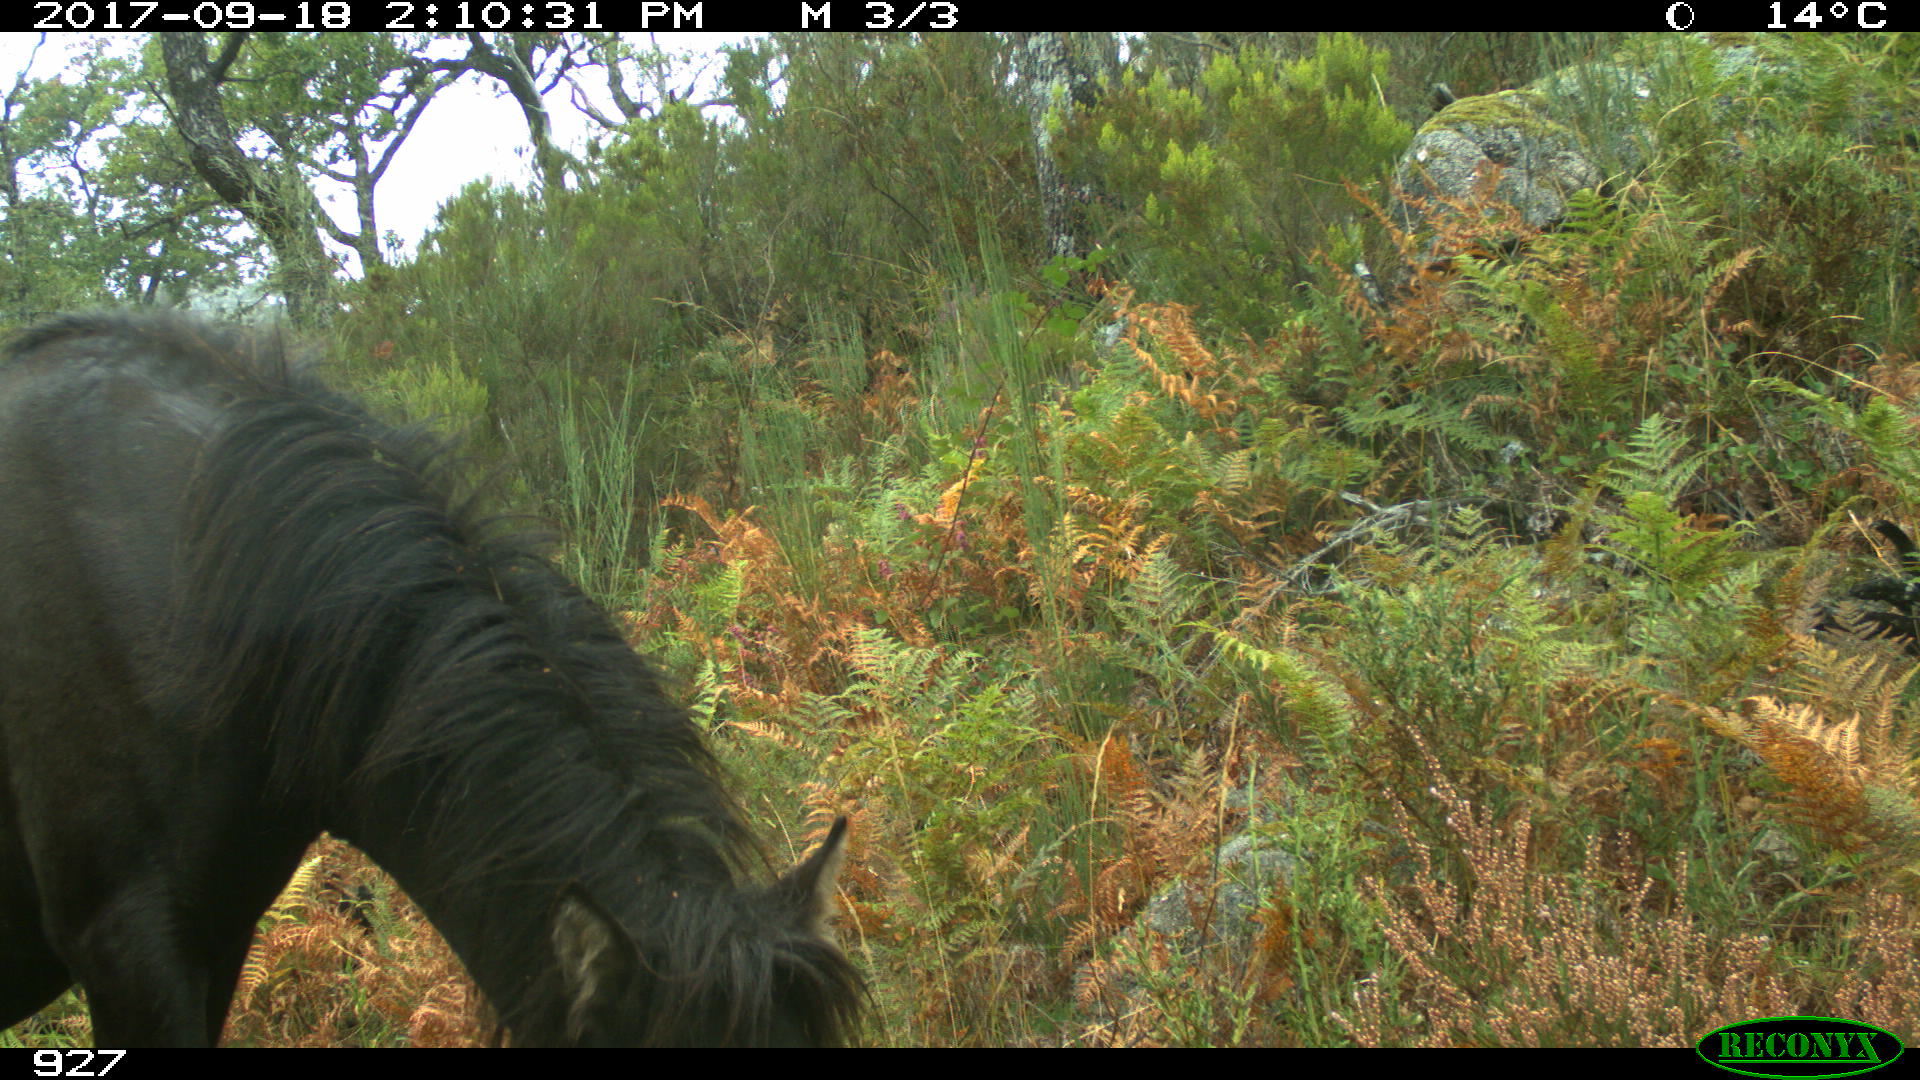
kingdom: Animalia
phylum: Chordata
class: Mammalia
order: Perissodactyla
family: Equidae
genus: Equus
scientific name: Equus caballus
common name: Horse
